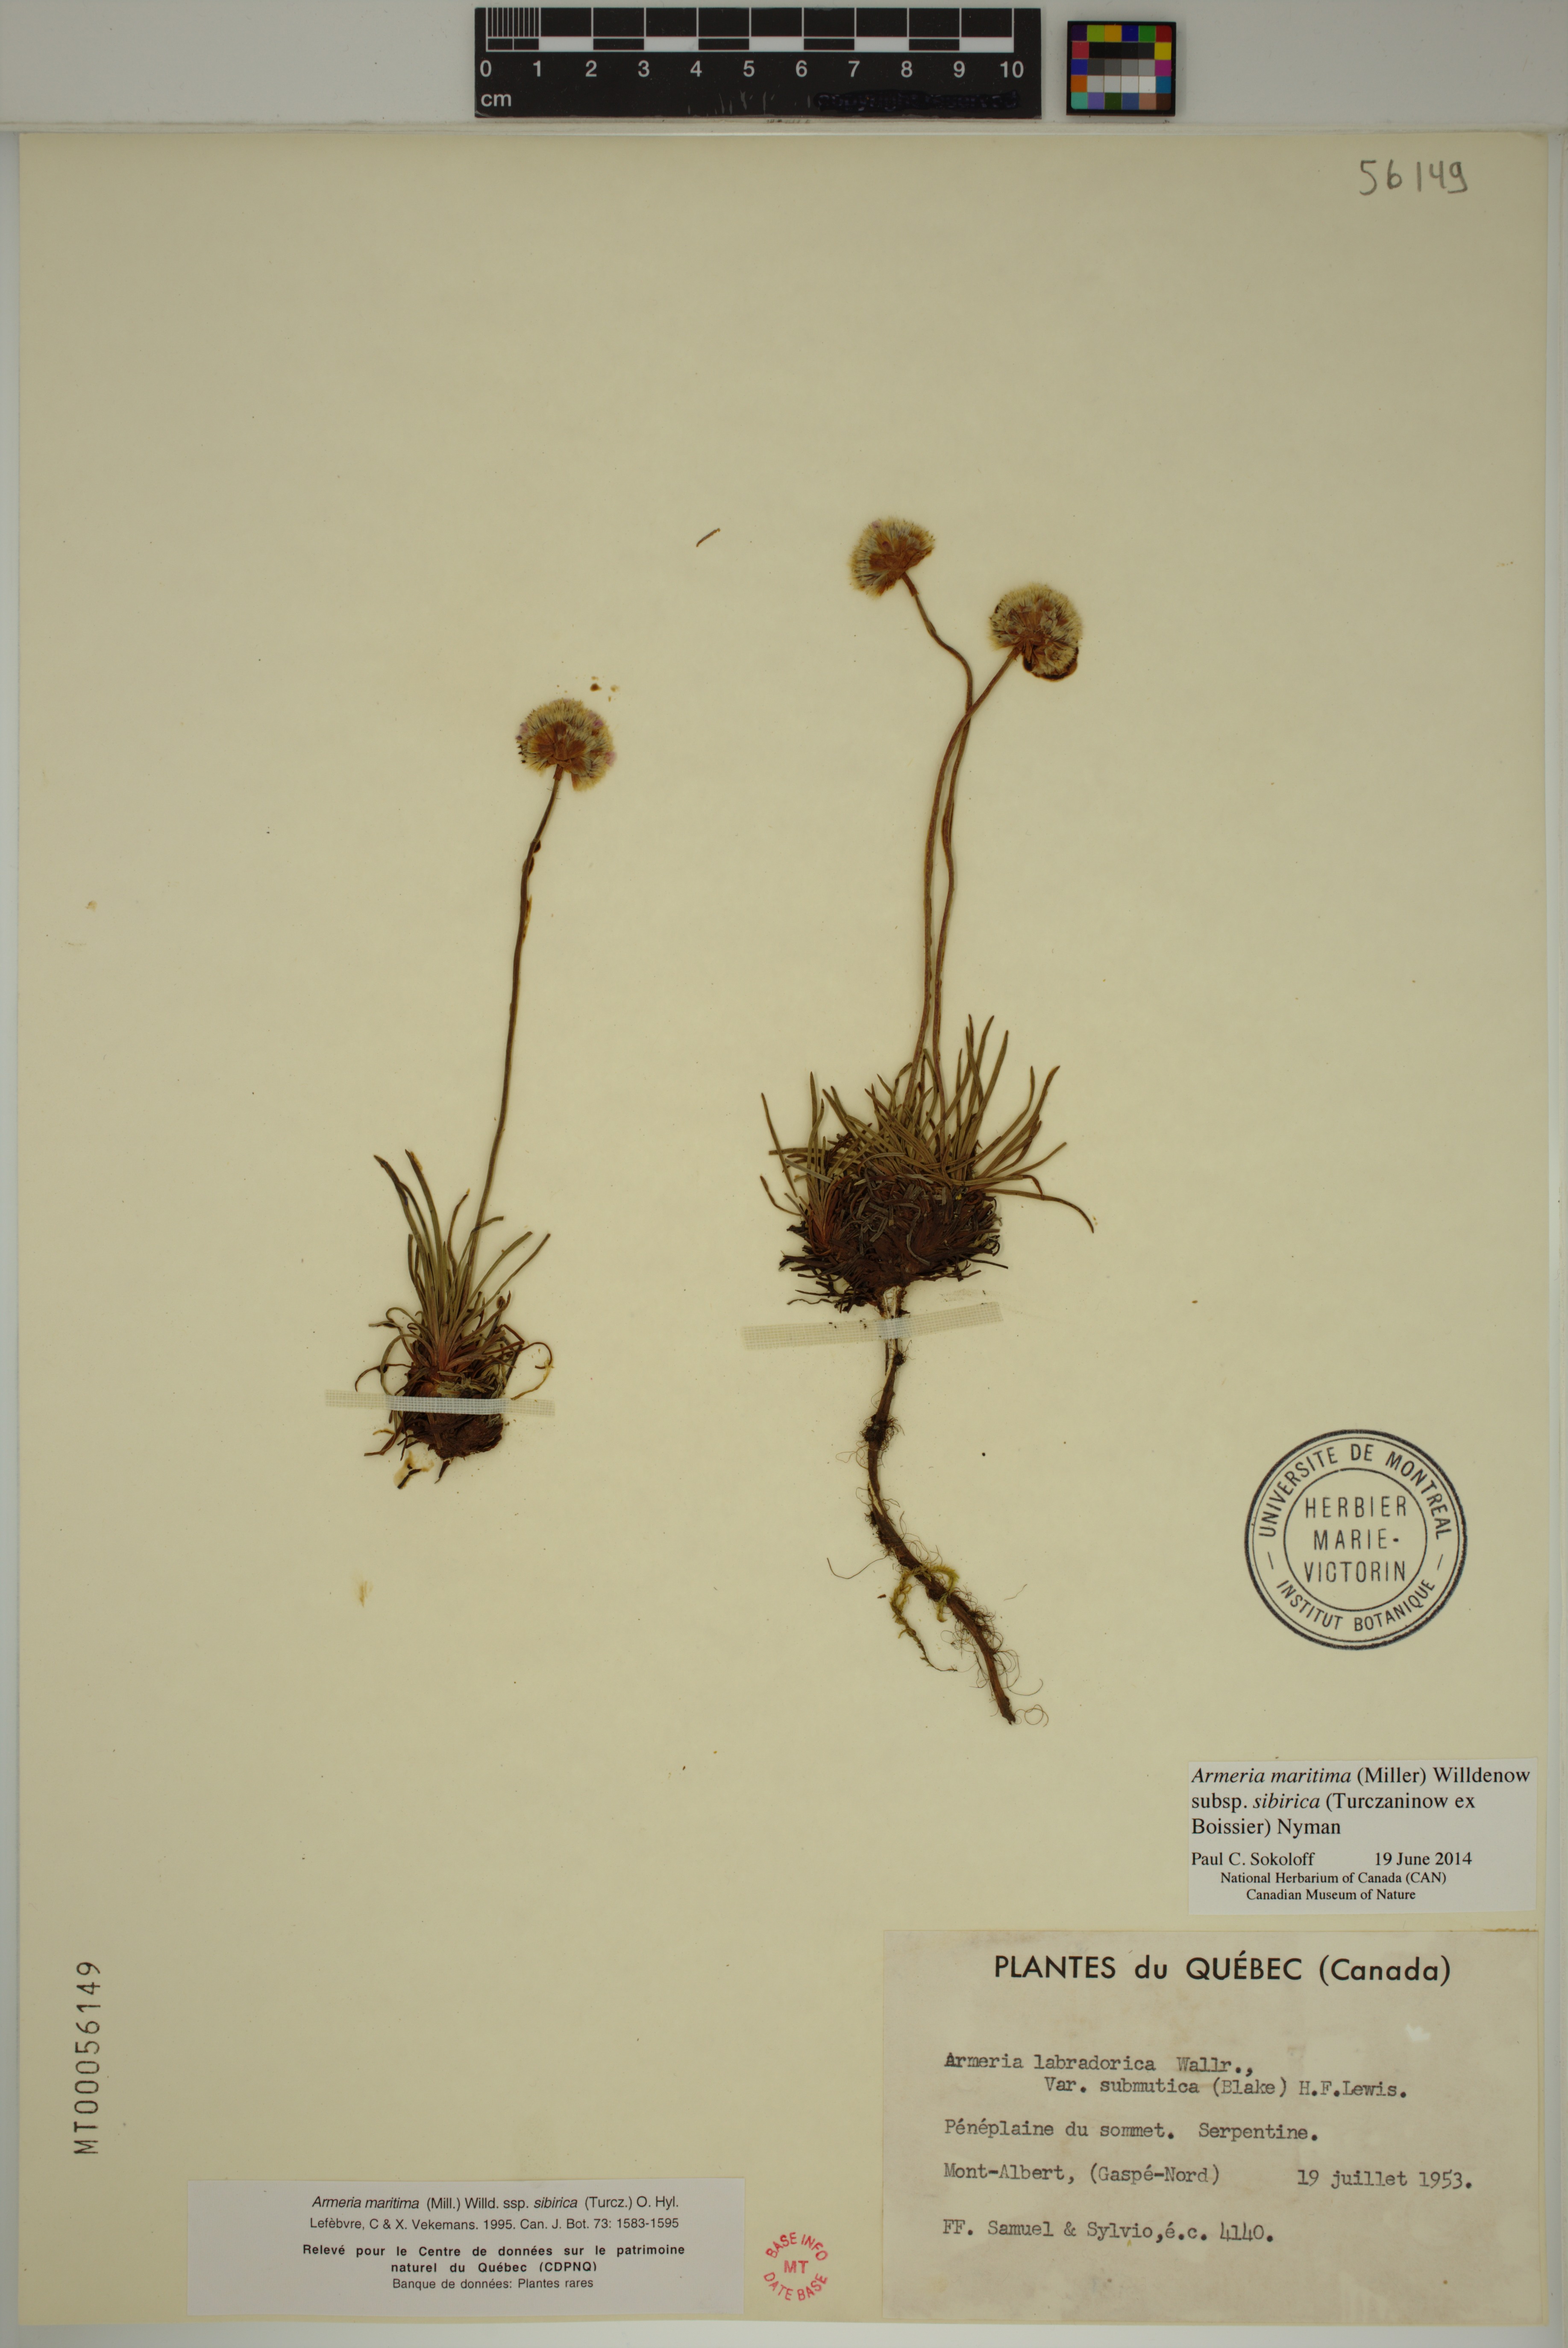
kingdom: Plantae
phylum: Tracheophyta
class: Magnoliopsida
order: Caryophyllales
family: Plumbaginaceae
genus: Armeria
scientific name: Armeria maritima
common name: Thrift
